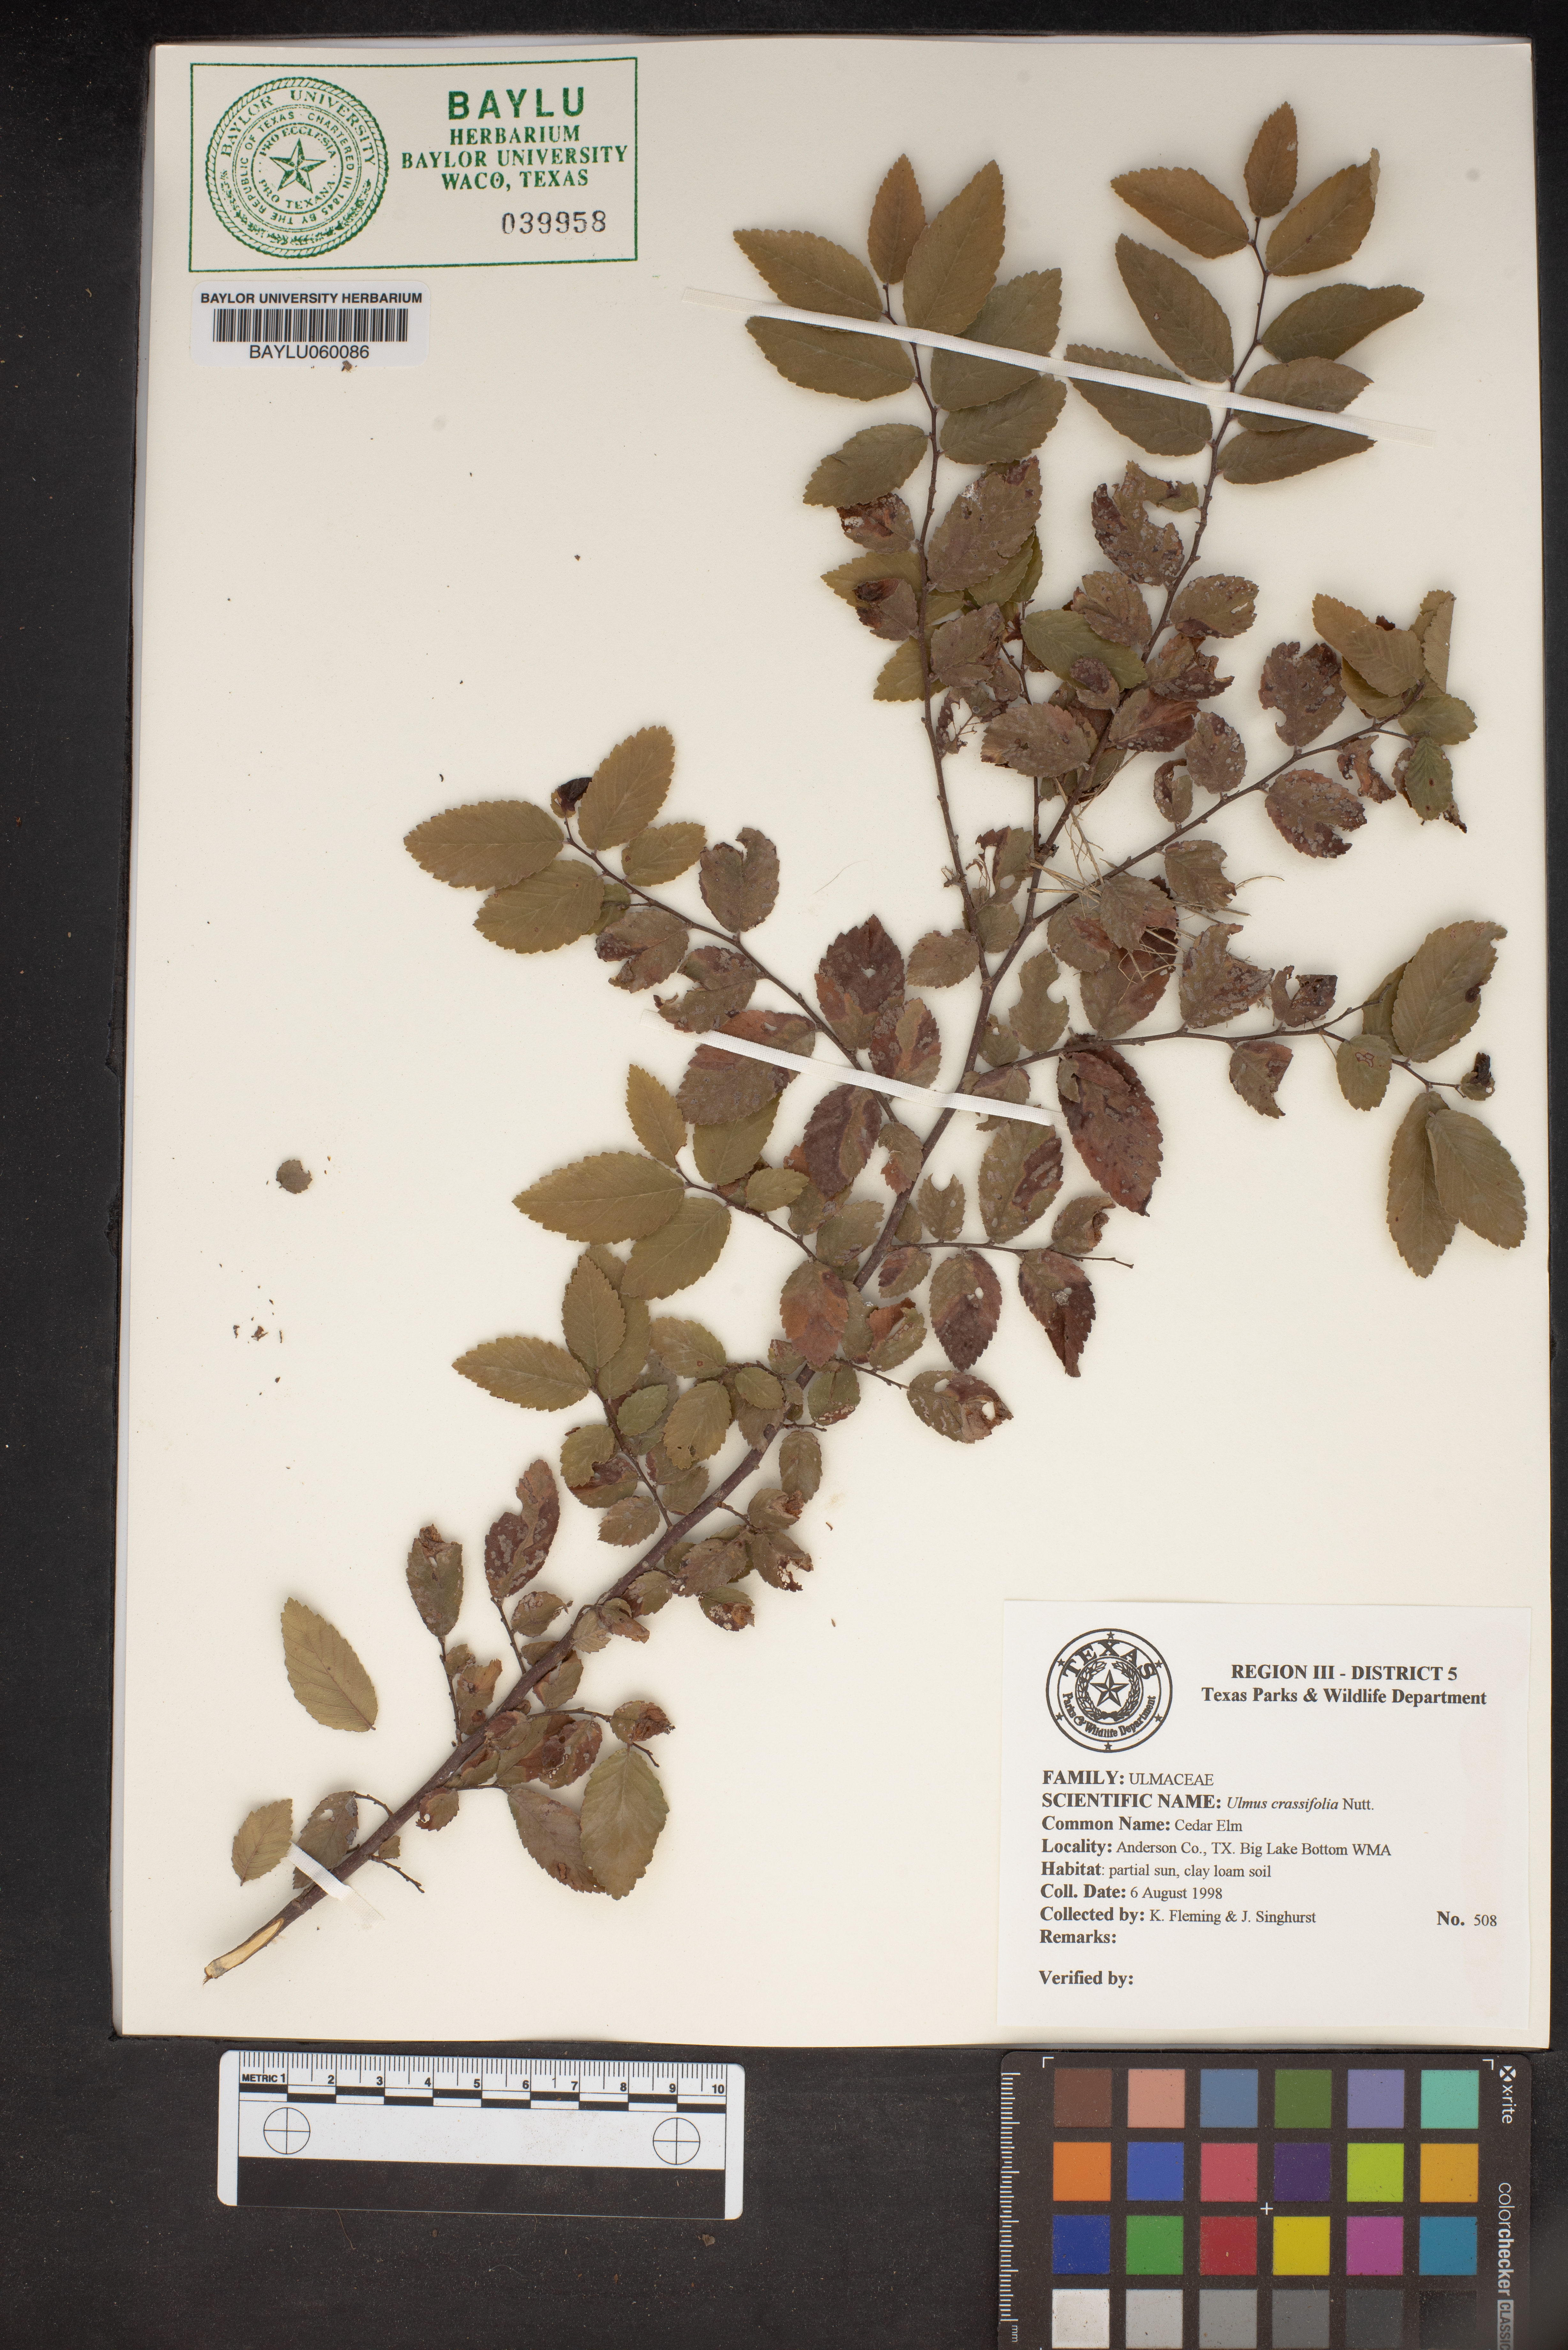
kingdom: Plantae
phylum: Tracheophyta
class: Magnoliopsida
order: Rosales
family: Ulmaceae
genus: Ulmus
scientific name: Ulmus crassifolia
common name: Basket elm
